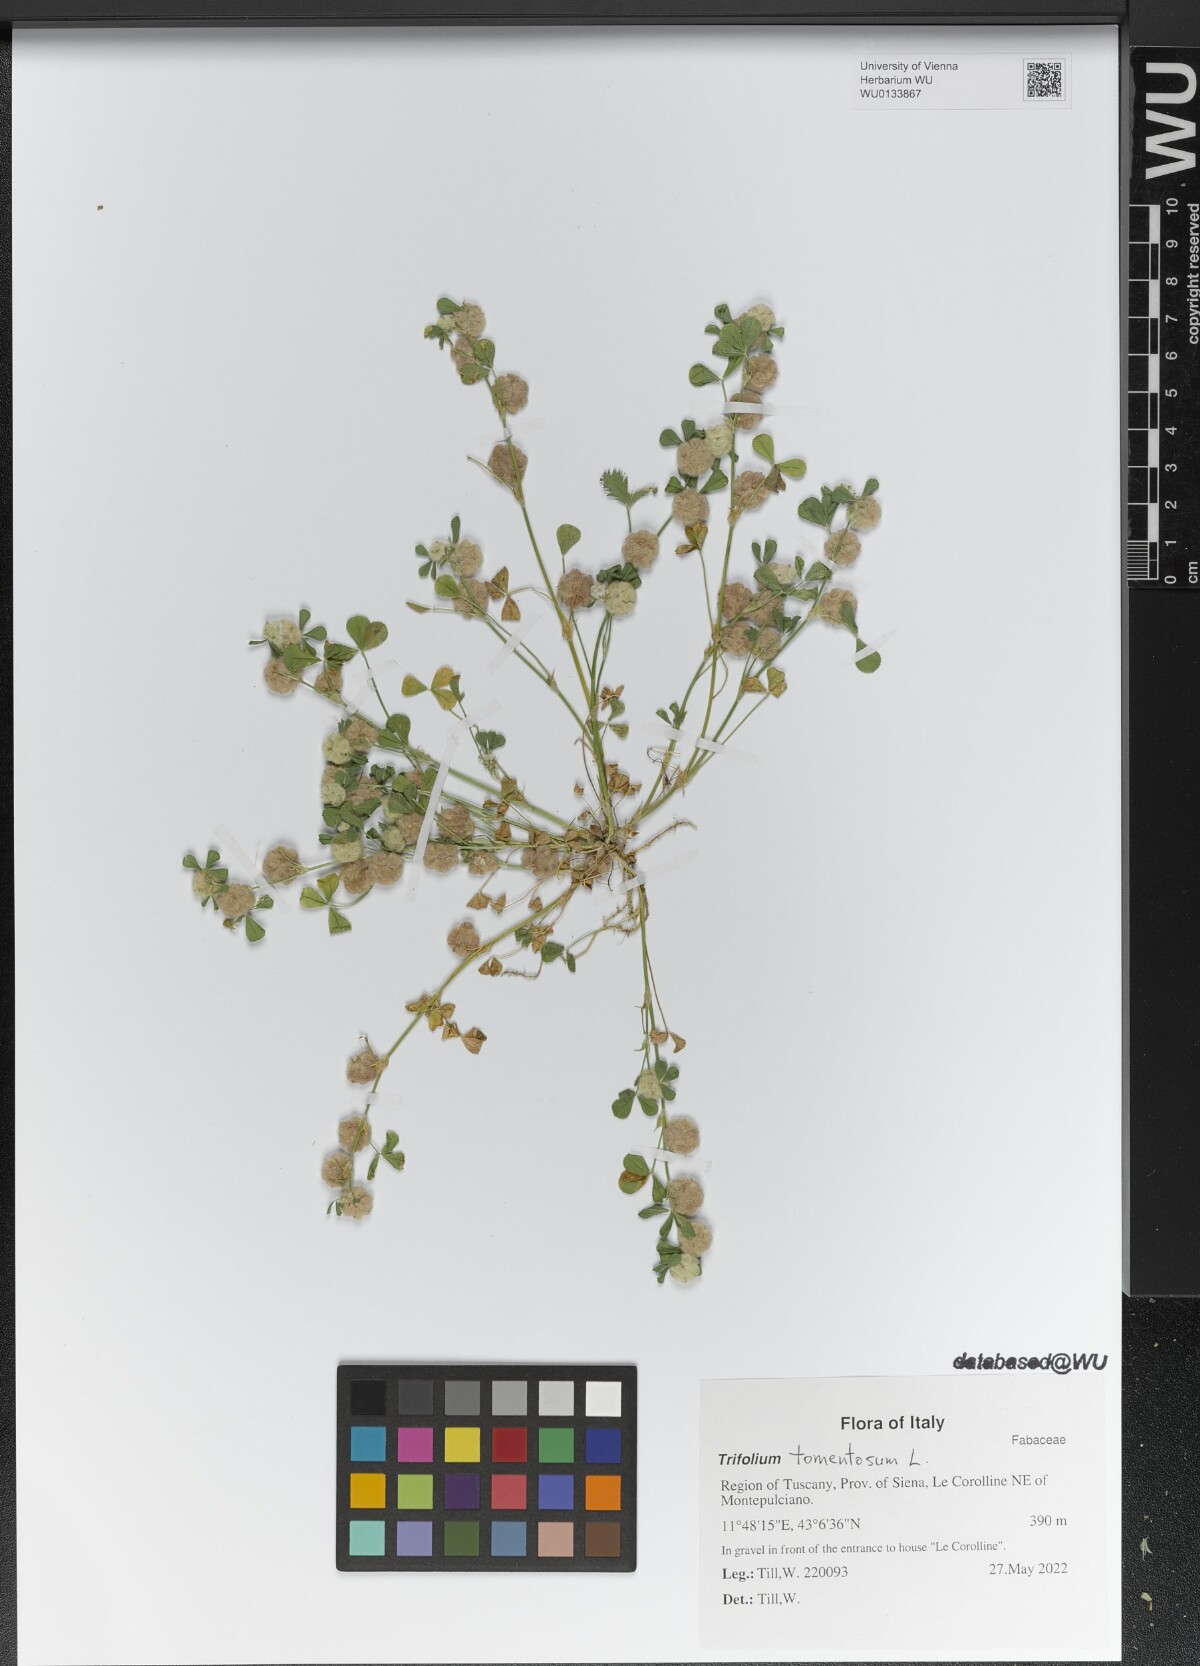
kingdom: Plantae
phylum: Tracheophyta
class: Magnoliopsida
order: Fabales
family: Fabaceae
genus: Trifolium
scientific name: Trifolium tomentosum
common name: Woolly clover
